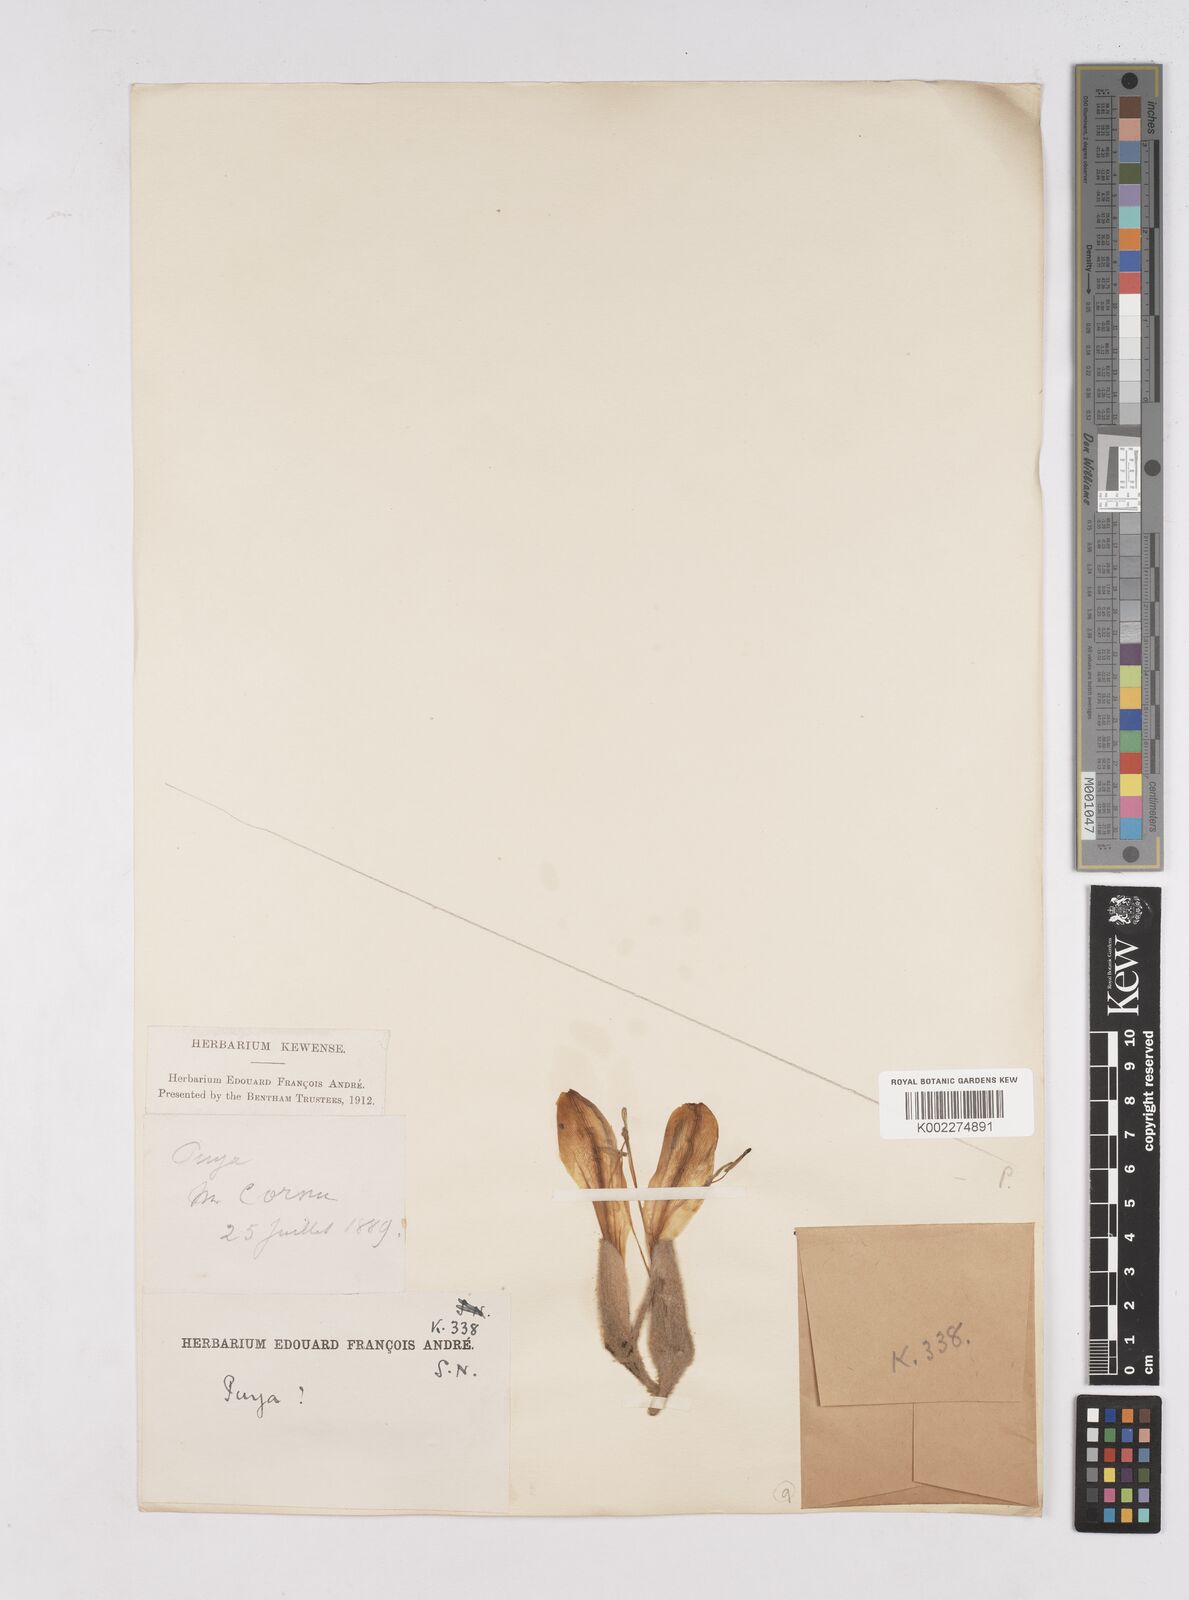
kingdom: Plantae
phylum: Tracheophyta
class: Liliopsida
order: Poales
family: Bromeliaceae
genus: Puya
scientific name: Puya
